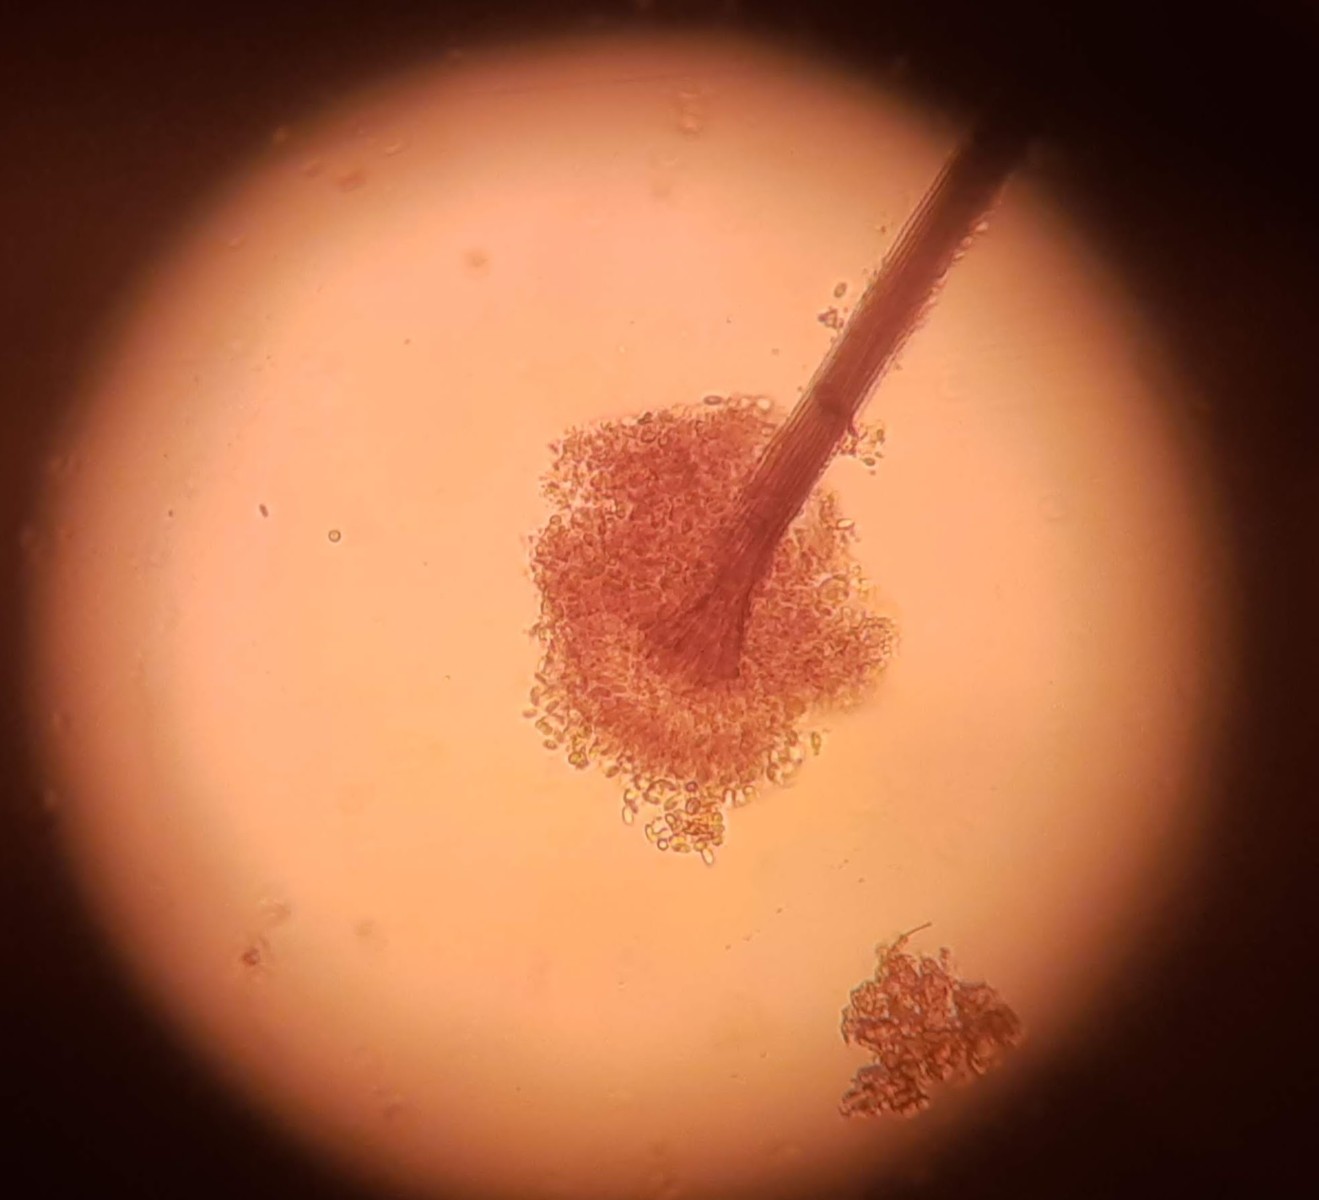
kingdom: Fungi
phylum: Ascomycota
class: Eurotiomycetes
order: Chaetothyriales
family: Herpotrichiellaceae
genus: Exophiala
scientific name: Exophiala calicioides
